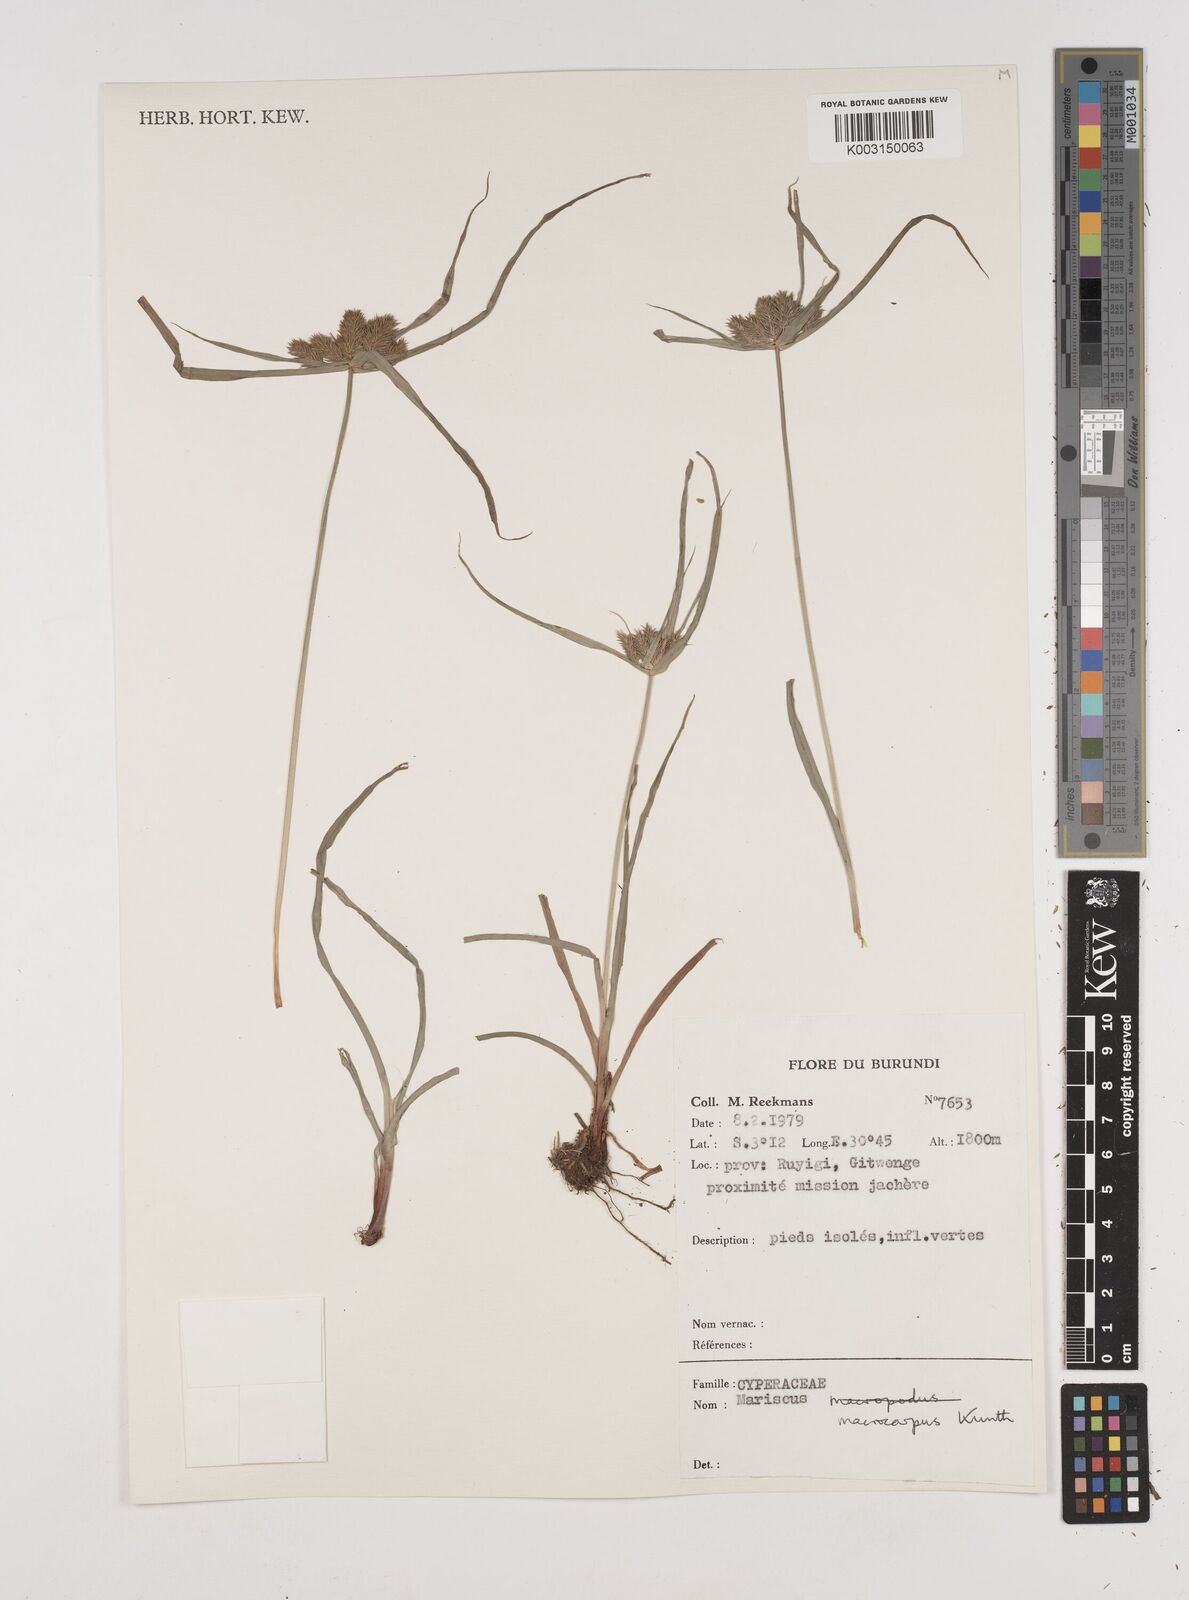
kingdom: Plantae
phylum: Tracheophyta
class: Liliopsida
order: Poales
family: Cyperaceae
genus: Cyperus
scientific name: Cyperus macrocarpus
